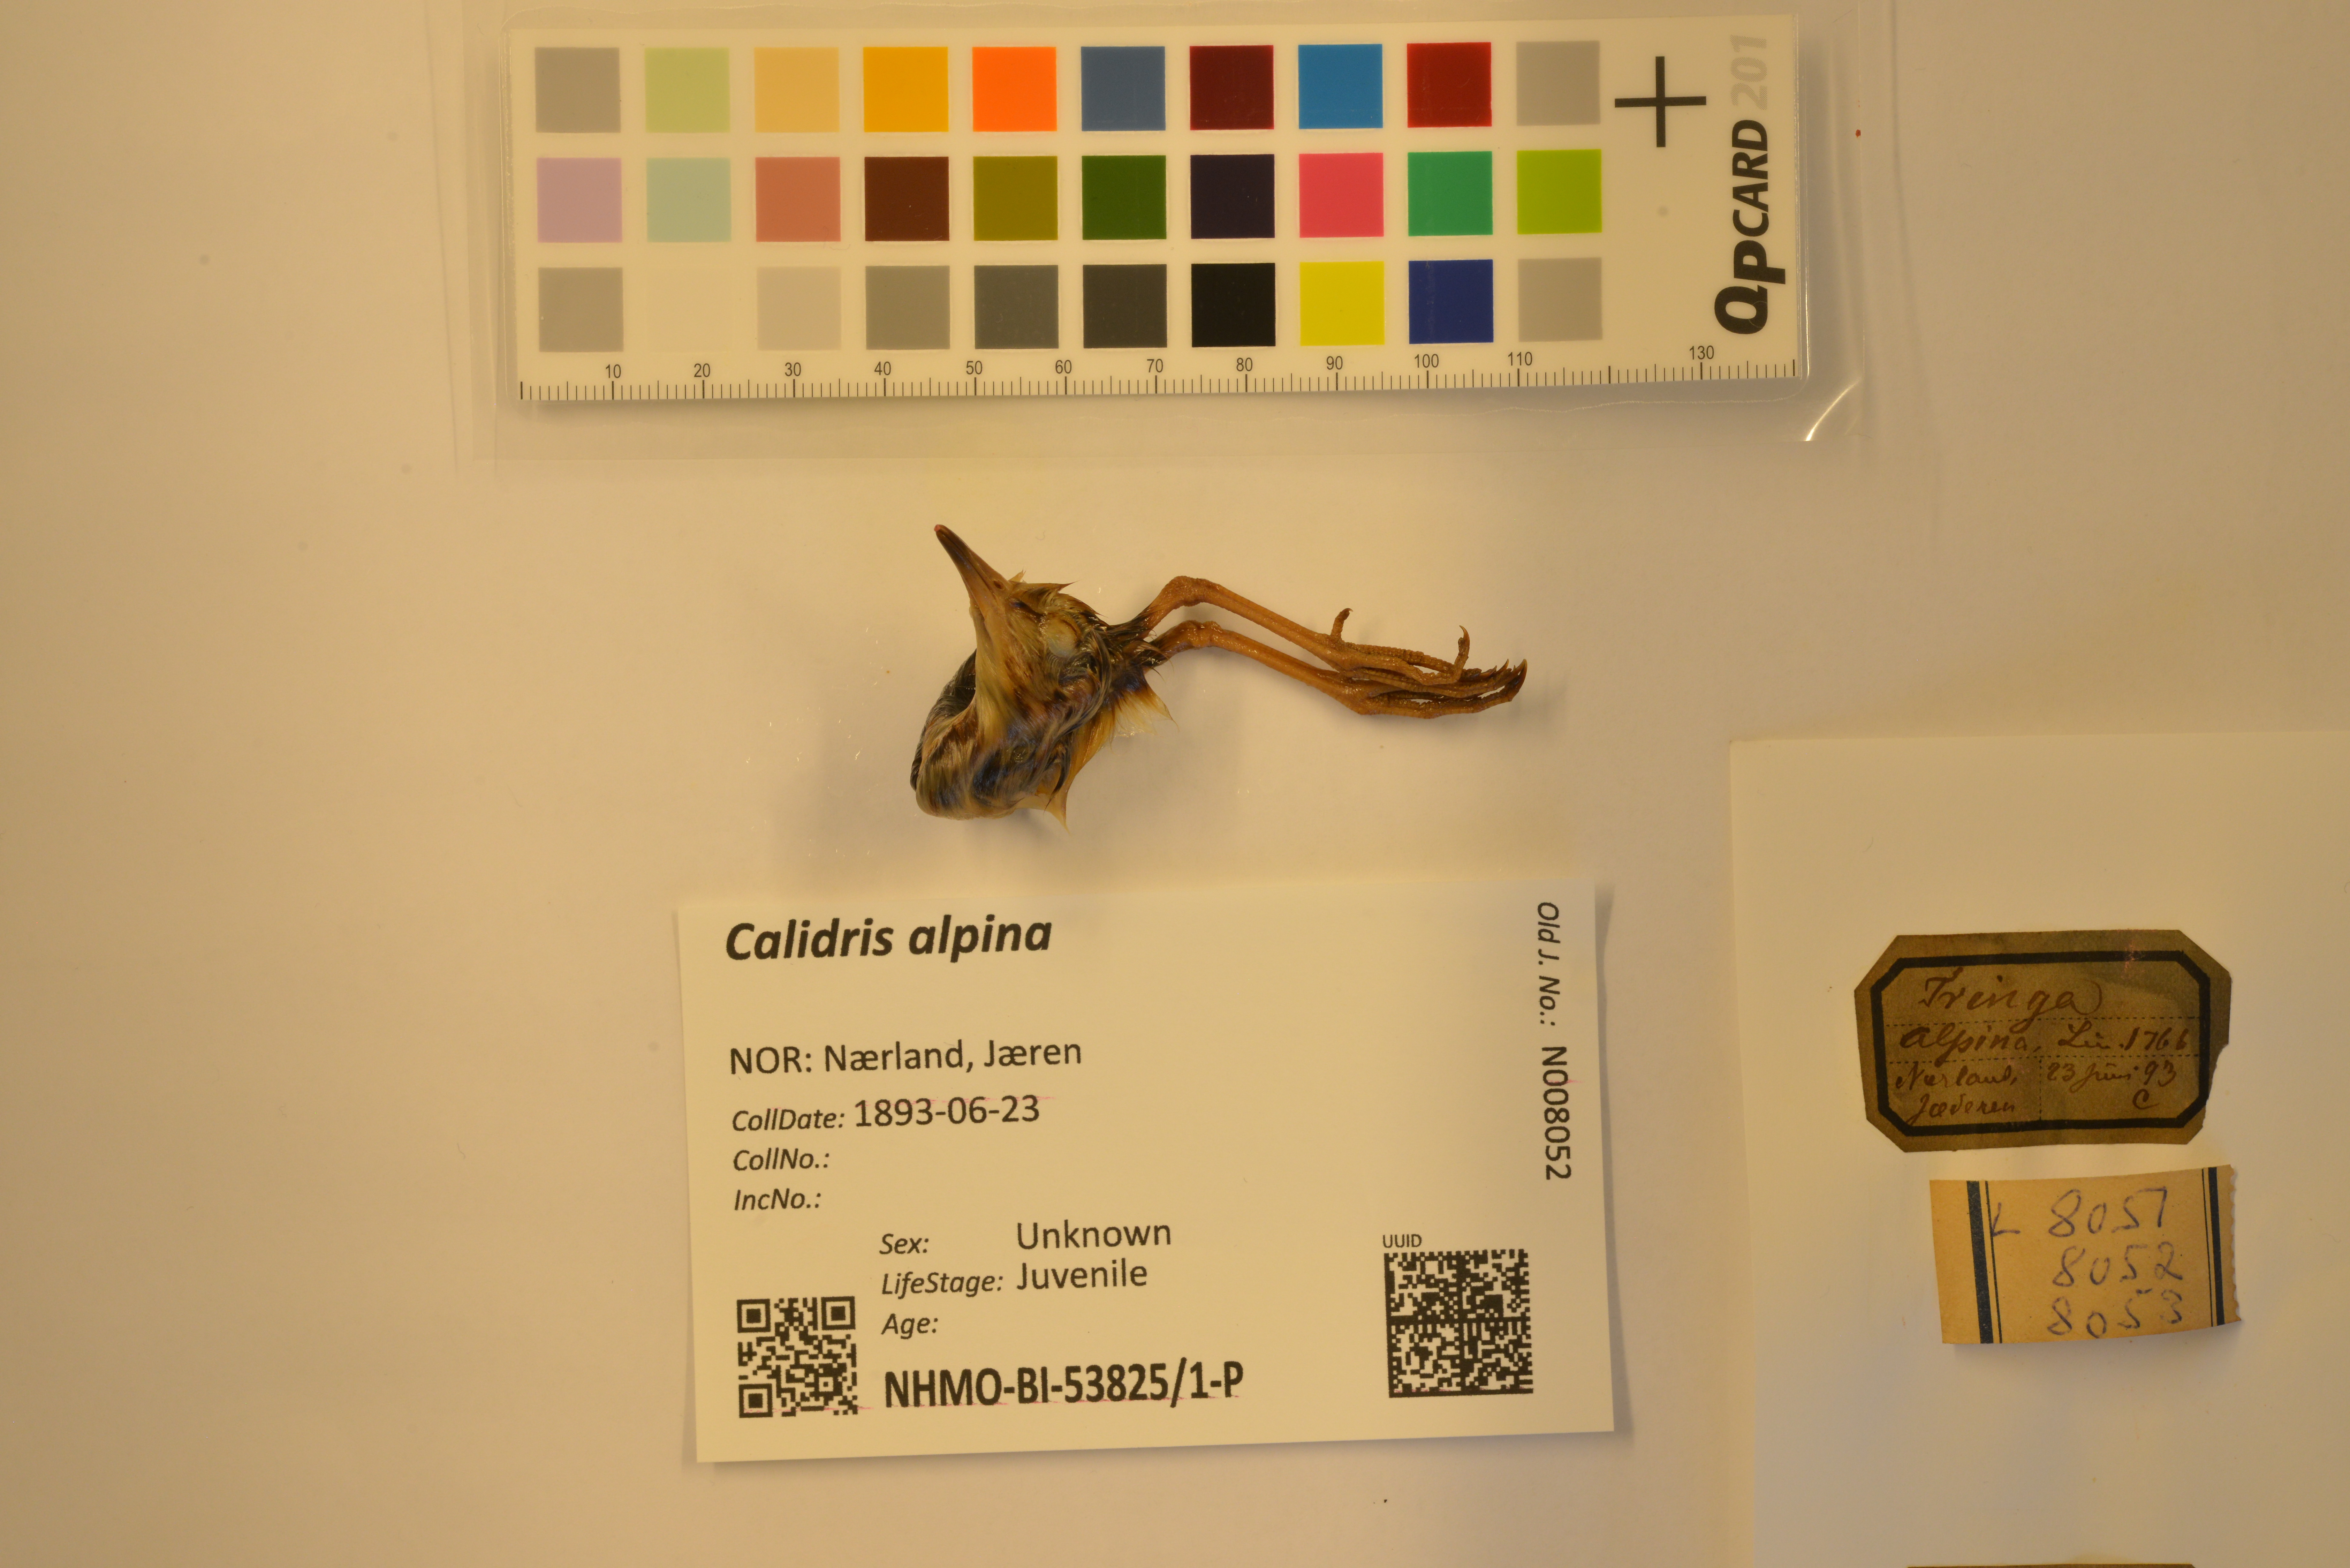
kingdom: Animalia
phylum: Chordata
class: Aves
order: Charadriiformes
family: Scolopacidae
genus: Calidris
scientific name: Calidris alpina
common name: Dunlin
